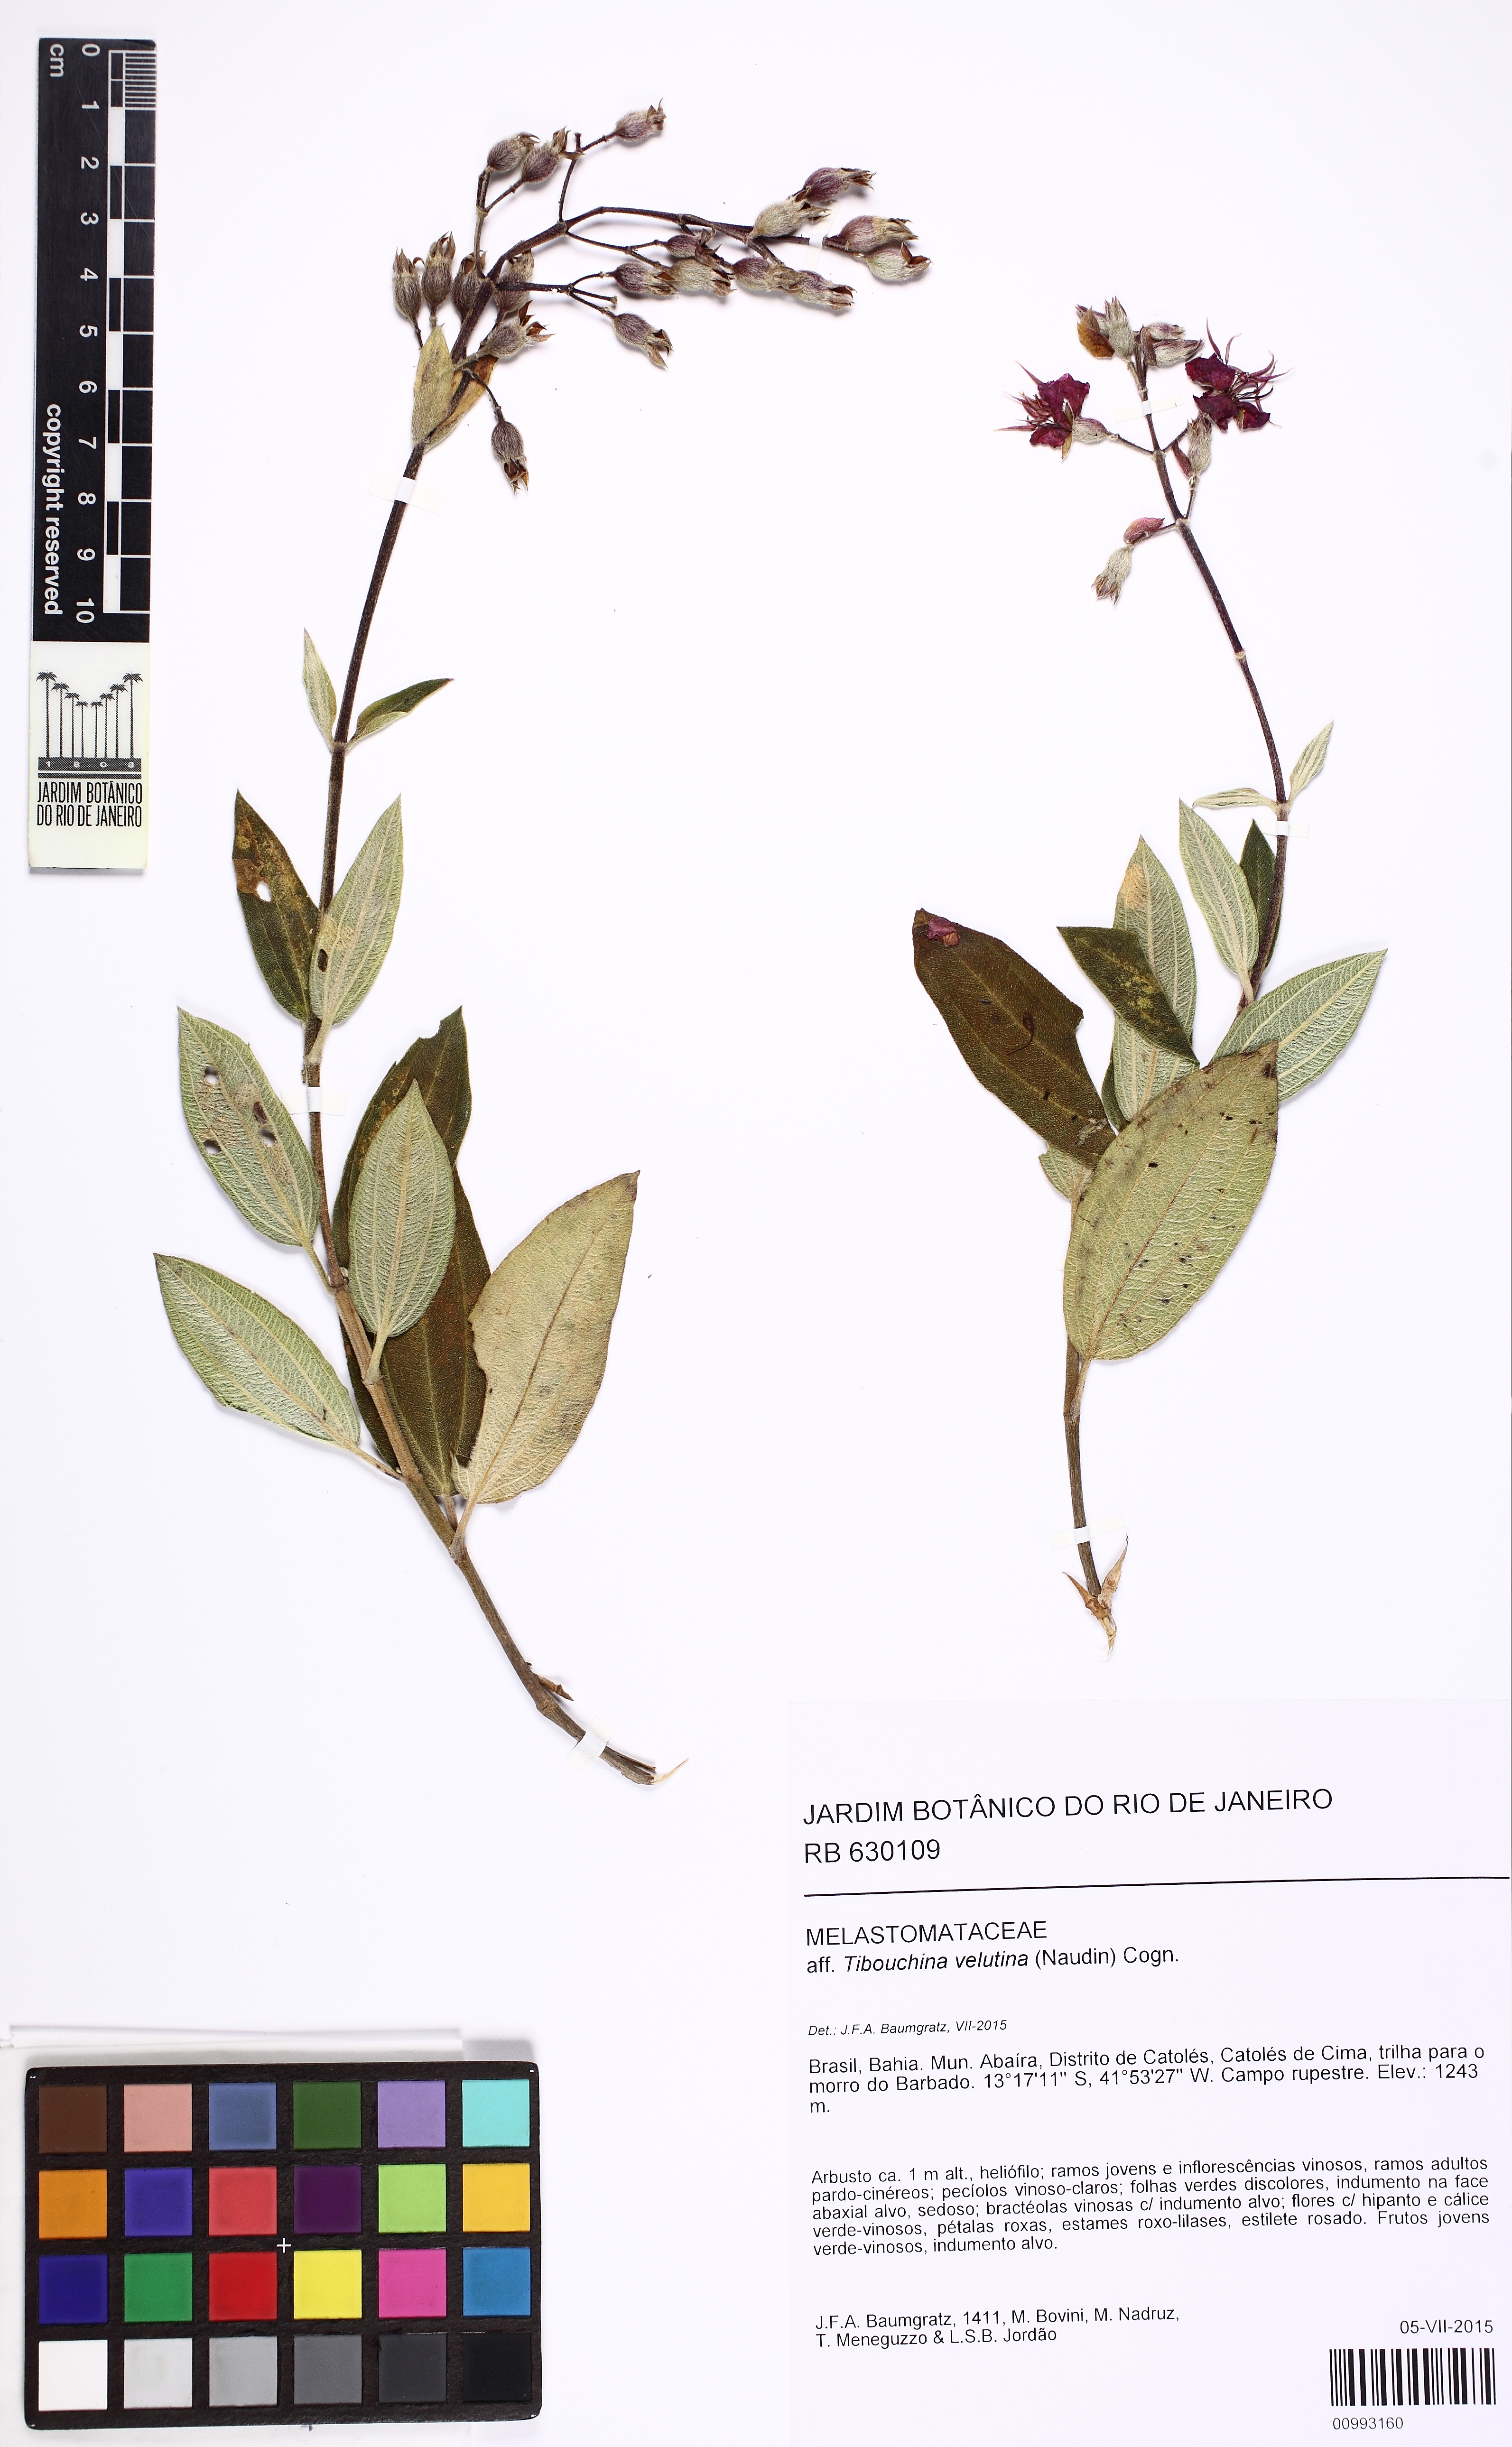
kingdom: Plantae
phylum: Tracheophyta
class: Magnoliopsida
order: Myrtales
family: Melastomataceae
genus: Pleroma
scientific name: Pleroma velutinum
